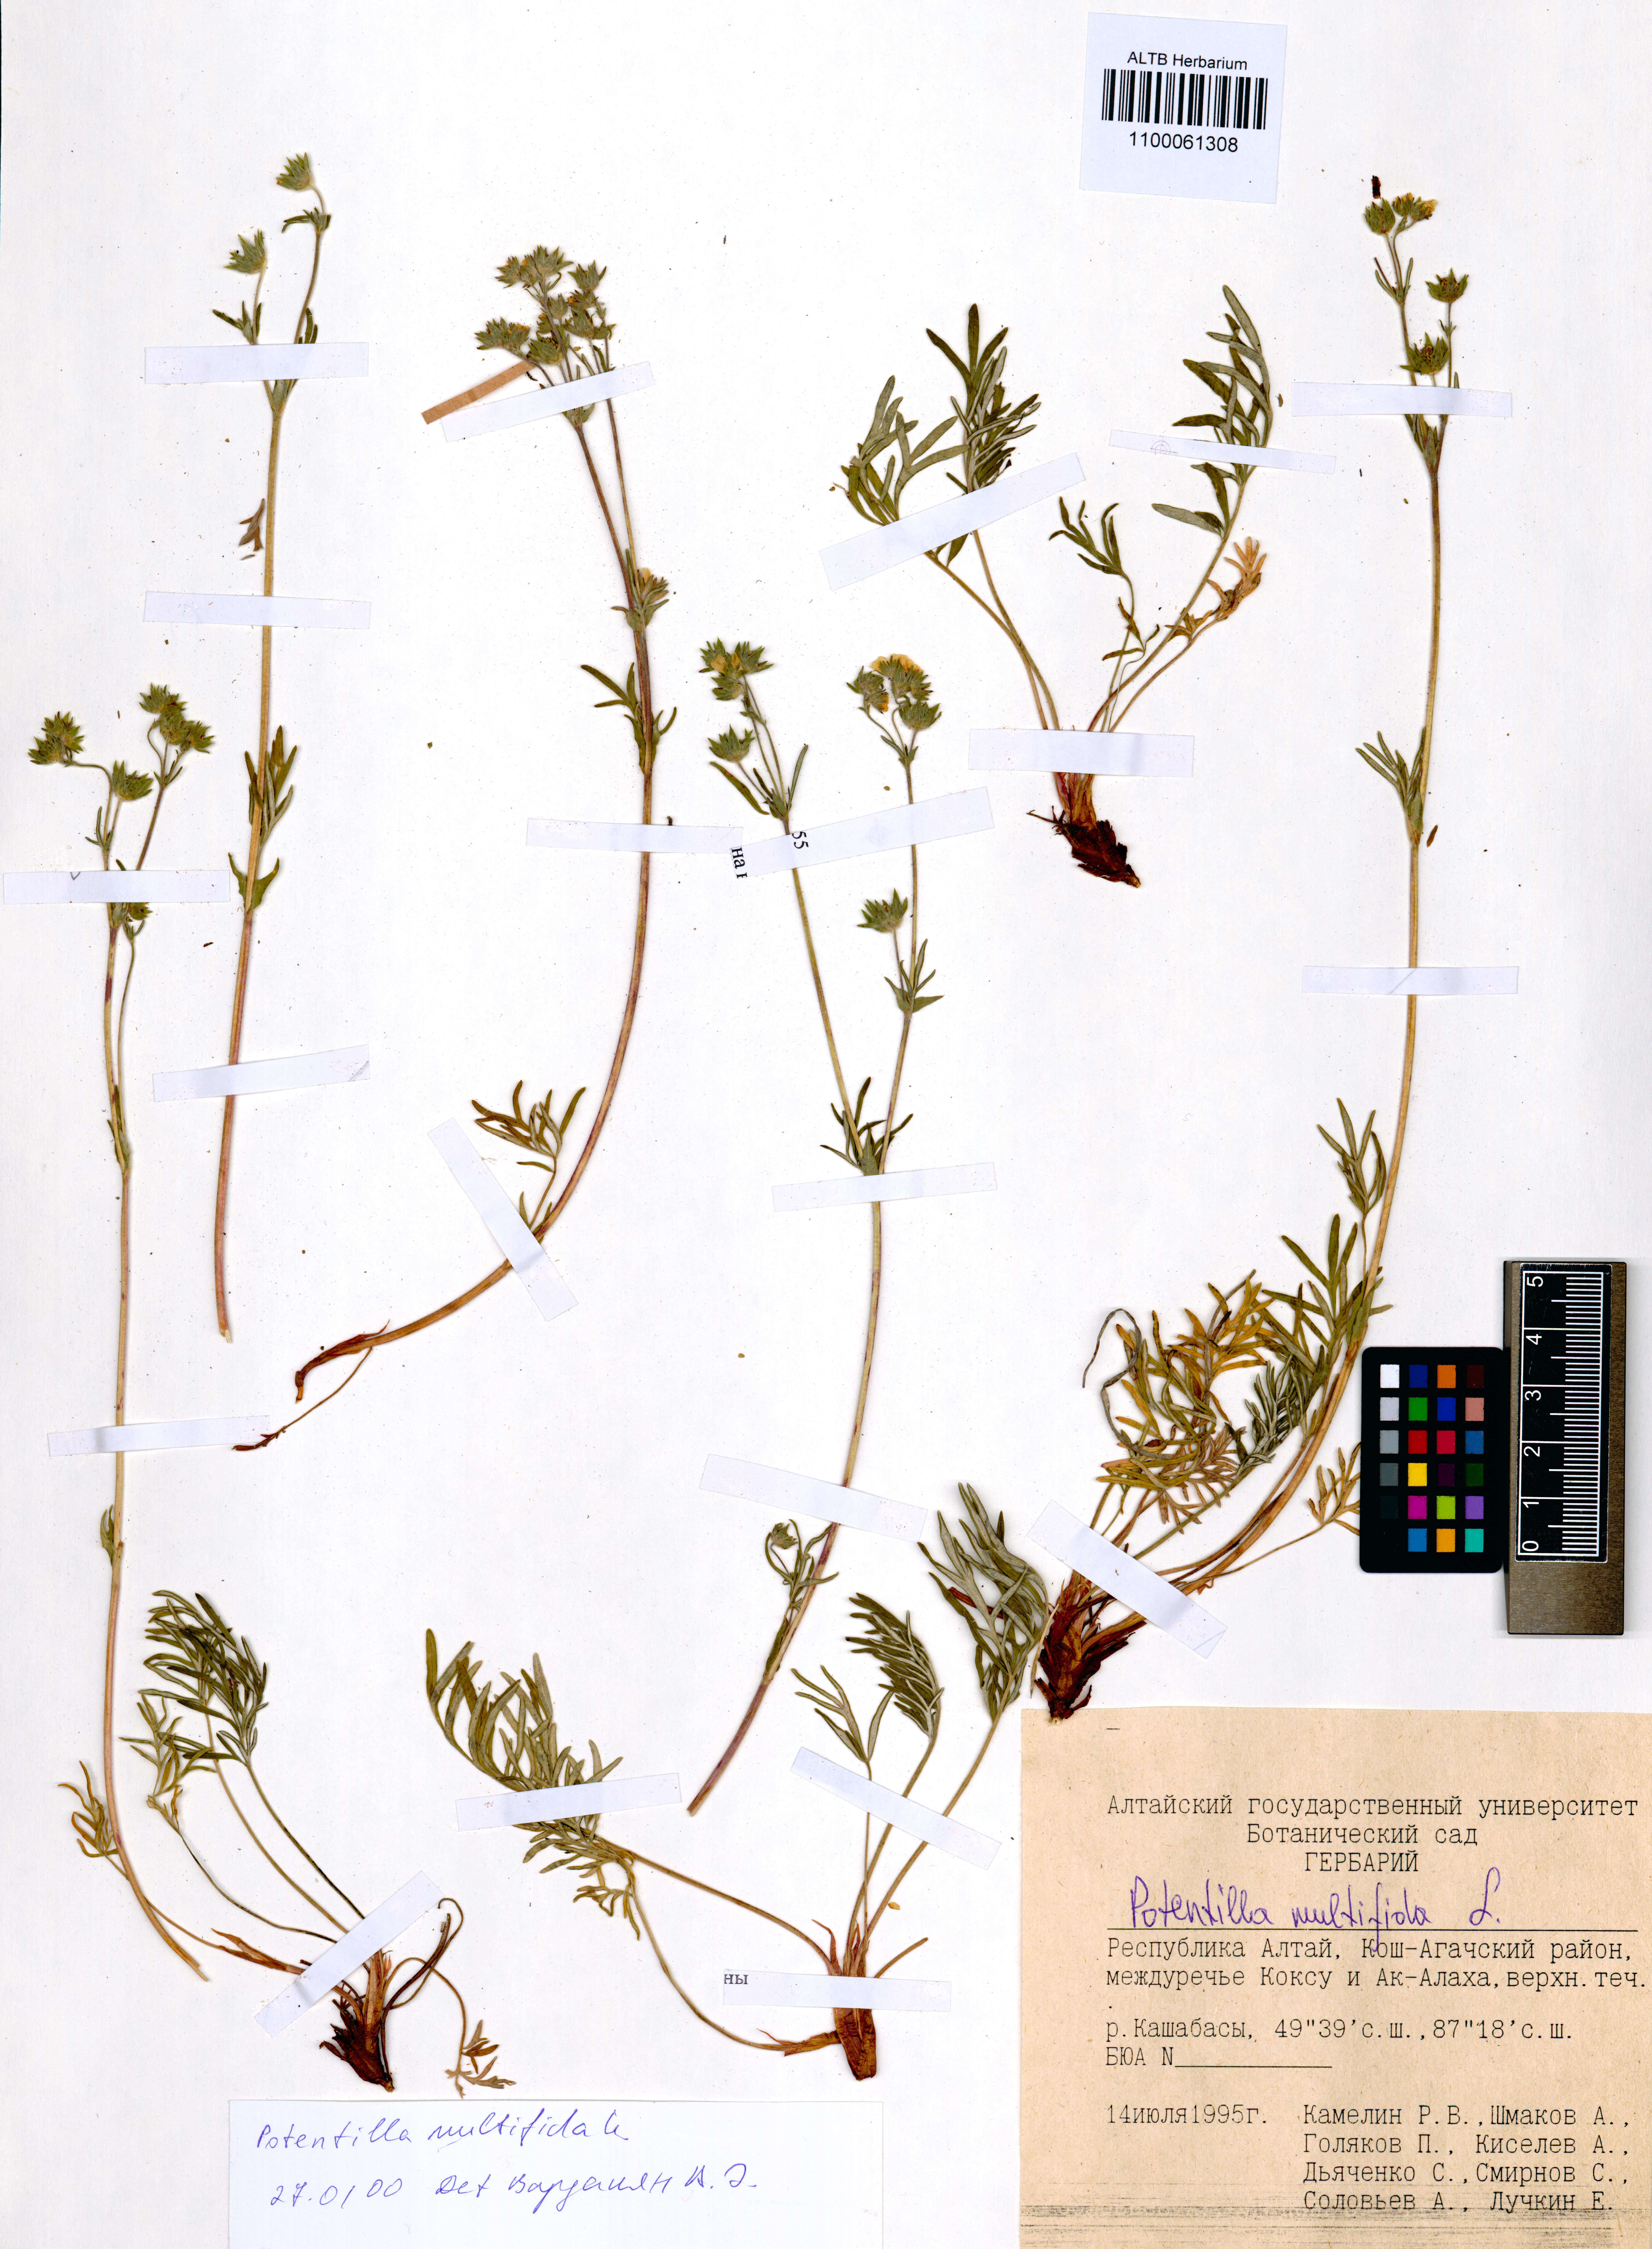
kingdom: Plantae
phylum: Tracheophyta
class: Magnoliopsida
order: Rosales
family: Rosaceae
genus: Potentilla
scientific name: Potentilla multifida
